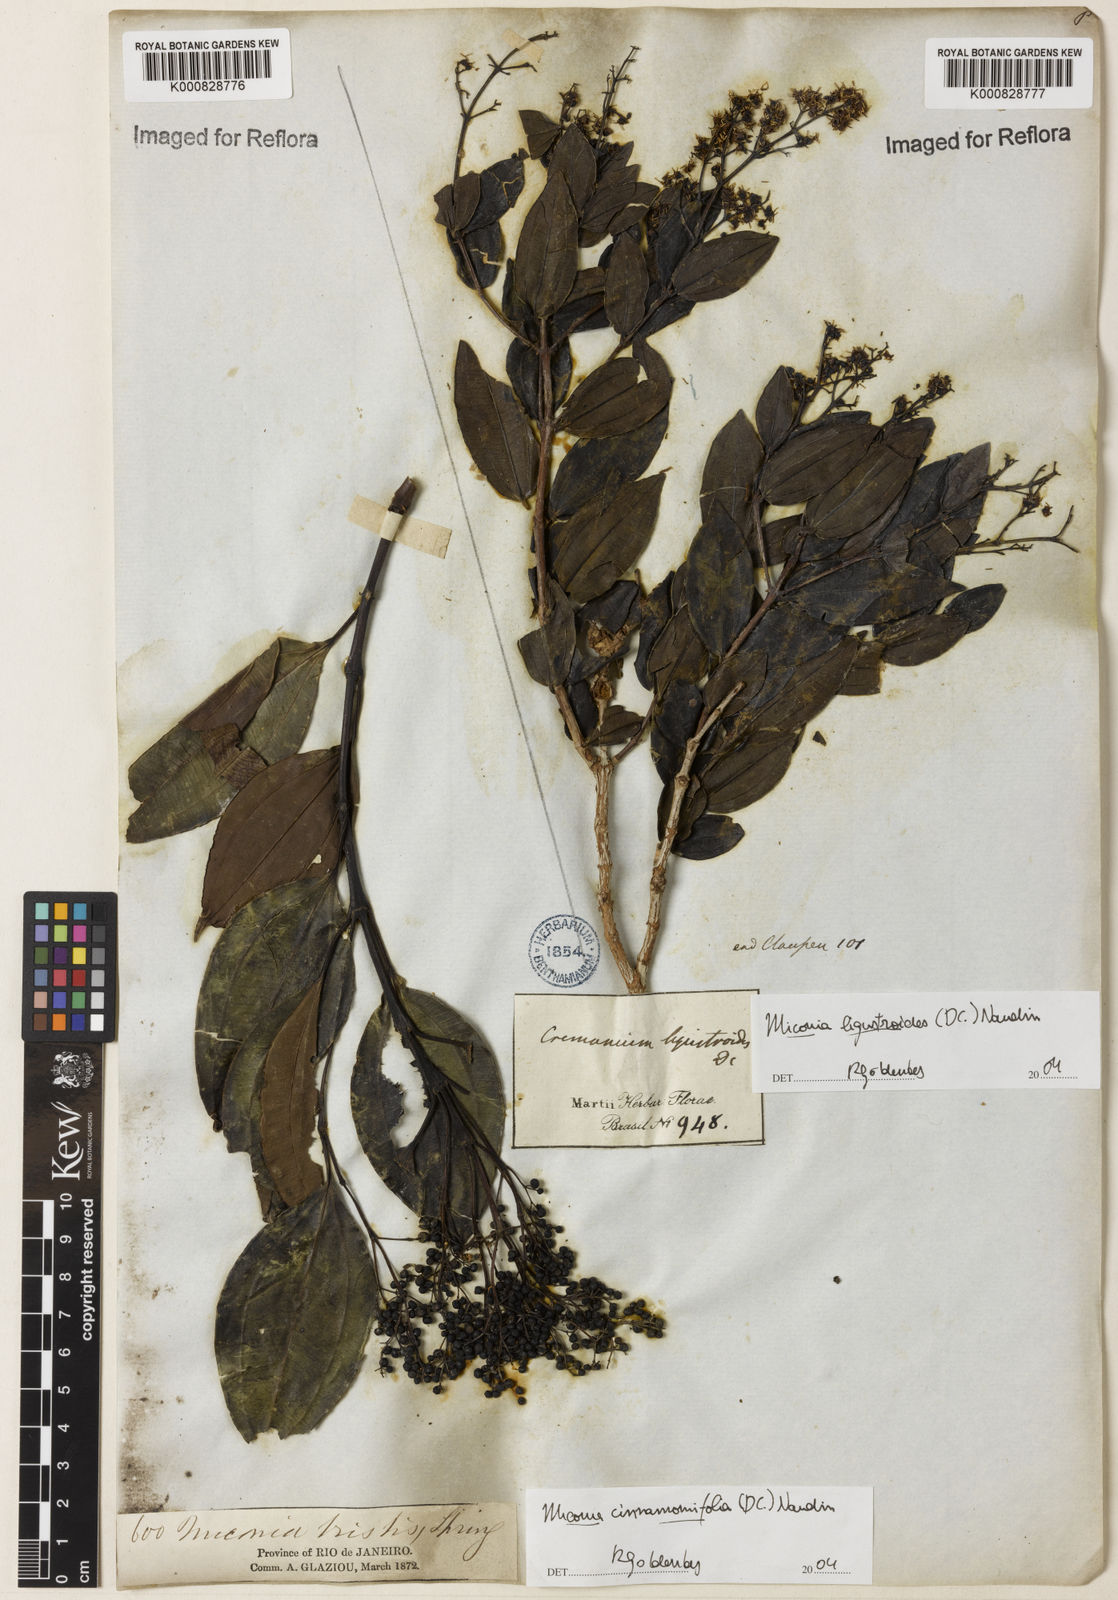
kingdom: Plantae
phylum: Tracheophyta
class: Magnoliopsida
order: Myrtales
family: Melastomataceae
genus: Miconia
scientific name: Miconia ligustroides
